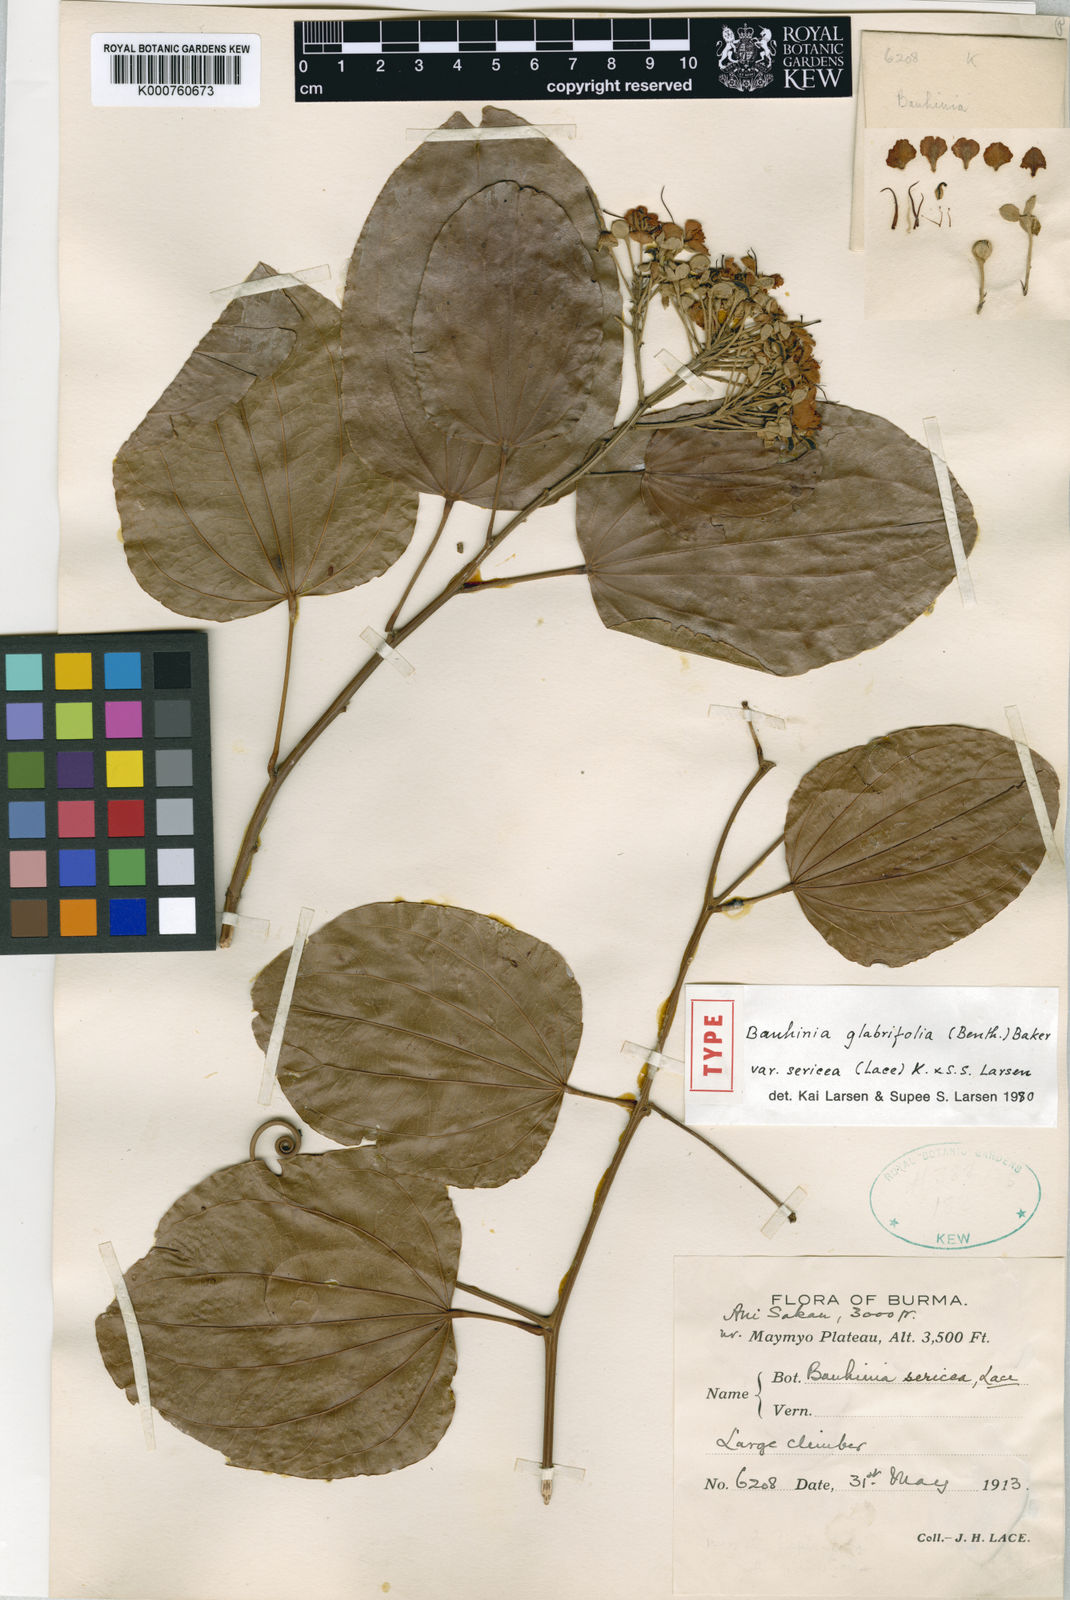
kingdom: Plantae
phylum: Tracheophyta
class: Magnoliopsida
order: Fabales
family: Fabaceae
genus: Phanera
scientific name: Phanera glabrifolia
